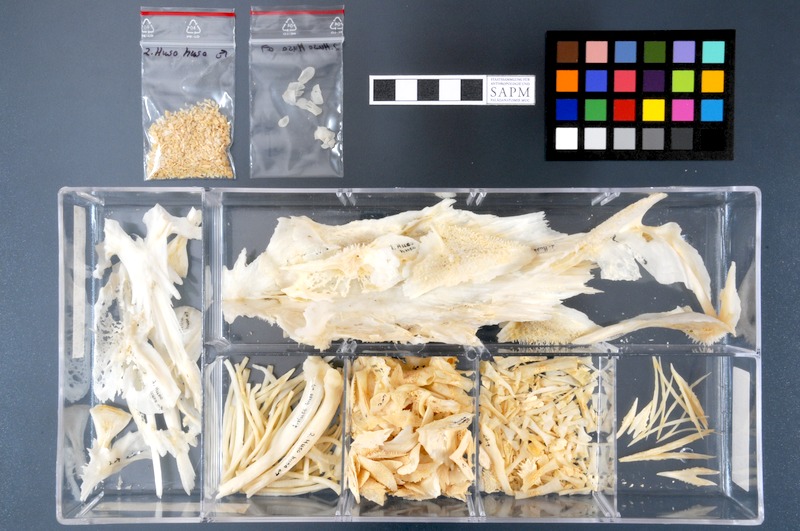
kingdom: Animalia
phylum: Chordata
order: Acipenseriformes
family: Acipenseridae
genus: Huso
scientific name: Huso huso
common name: Beluga
